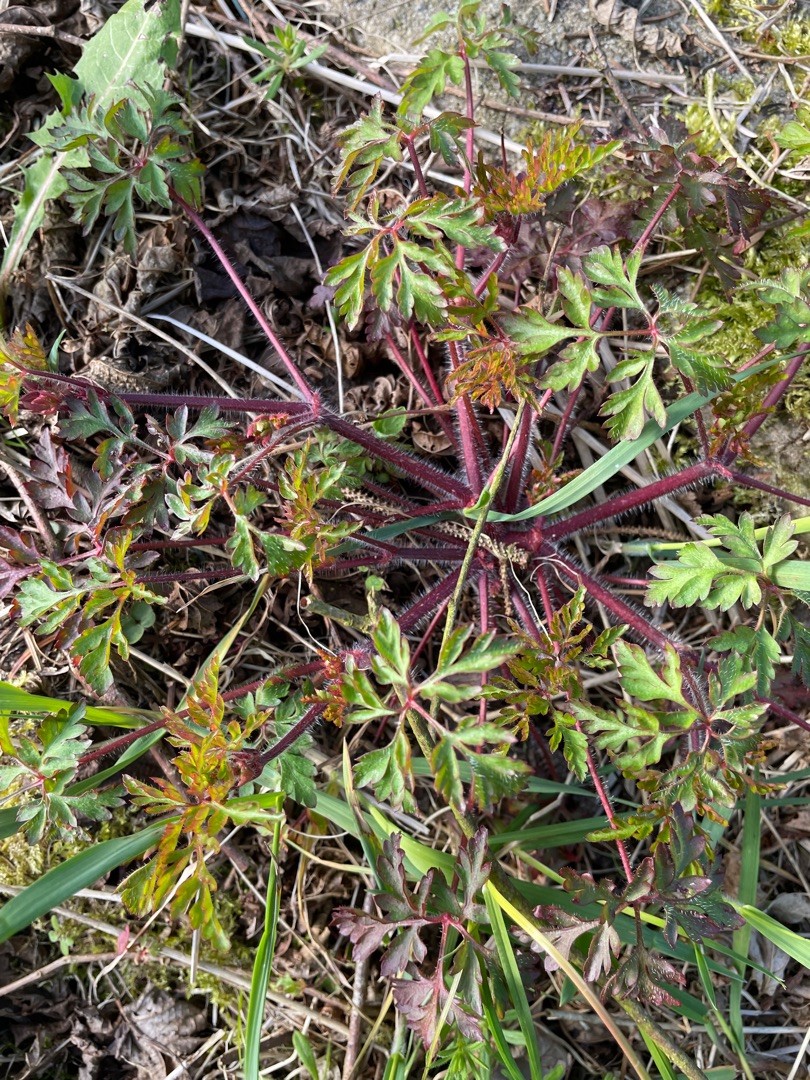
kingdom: Plantae
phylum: Tracheophyta
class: Magnoliopsida
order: Geraniales
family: Geraniaceae
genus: Geranium
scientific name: Geranium robertianum
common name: Stinkende storkenæb
